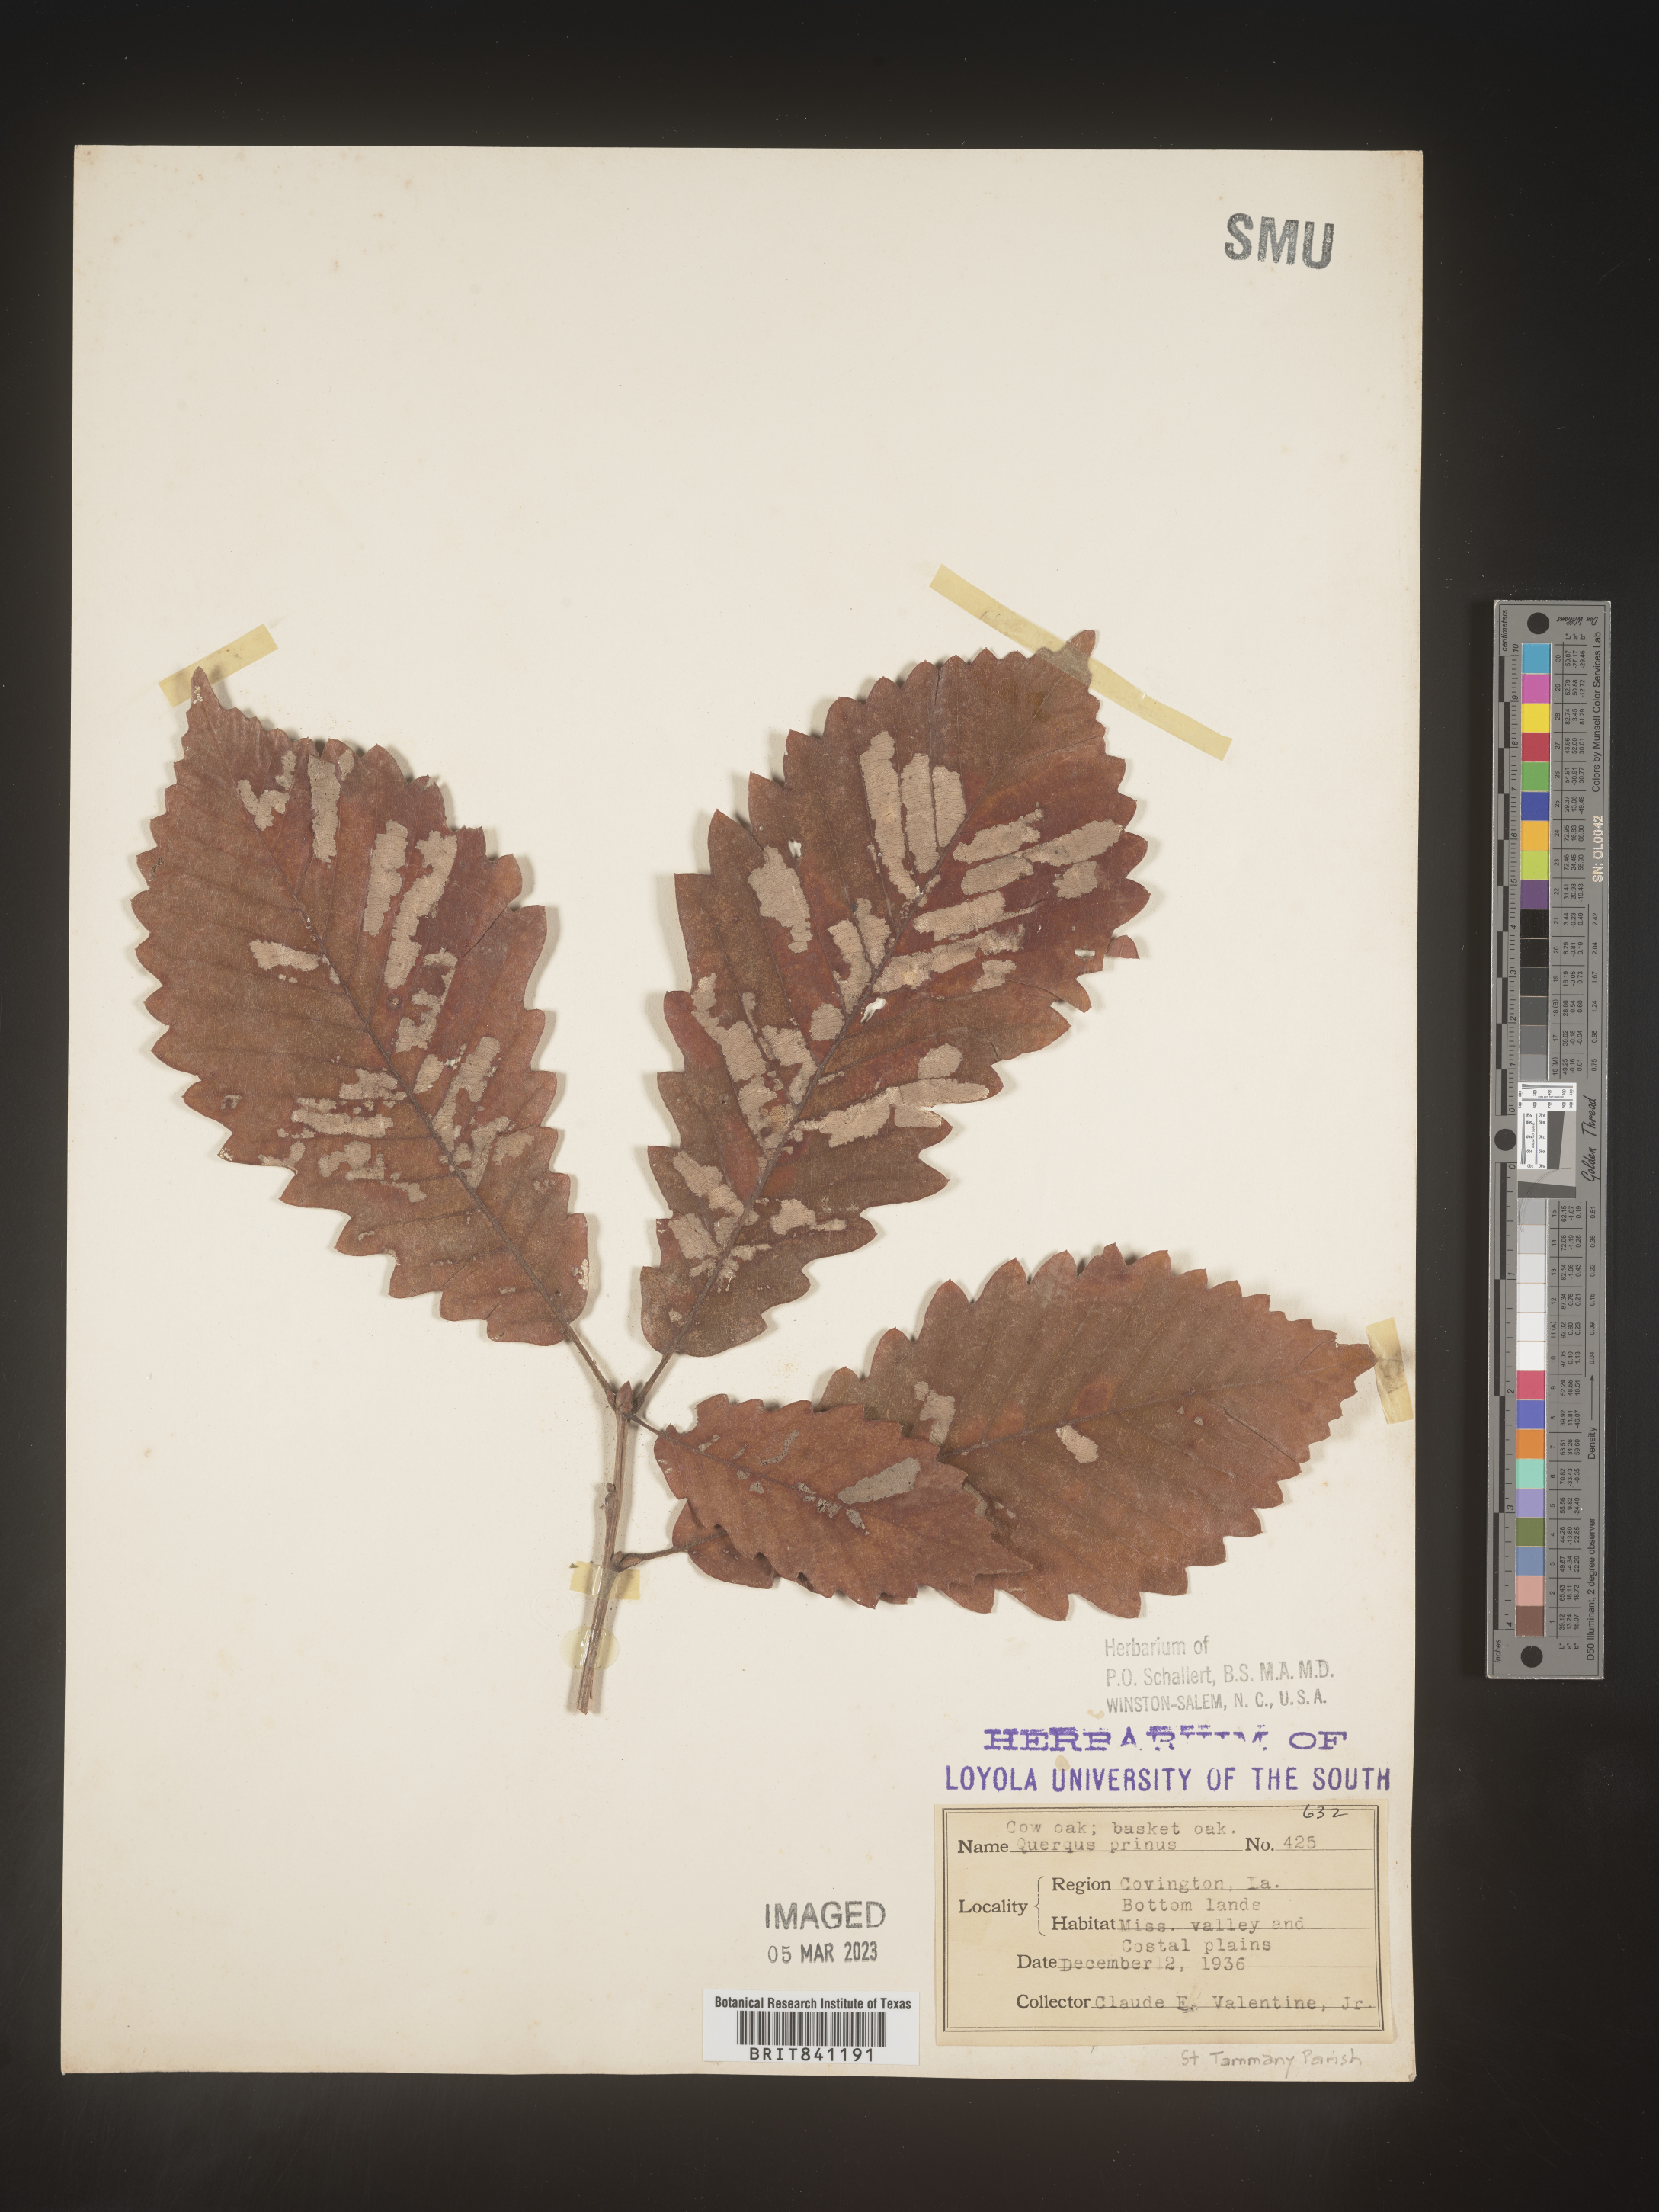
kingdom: Plantae
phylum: Tracheophyta
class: Magnoliopsida
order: Fagales
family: Fagaceae
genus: Quercus
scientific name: Quercus michauxii
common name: Swamp chestnut oak
